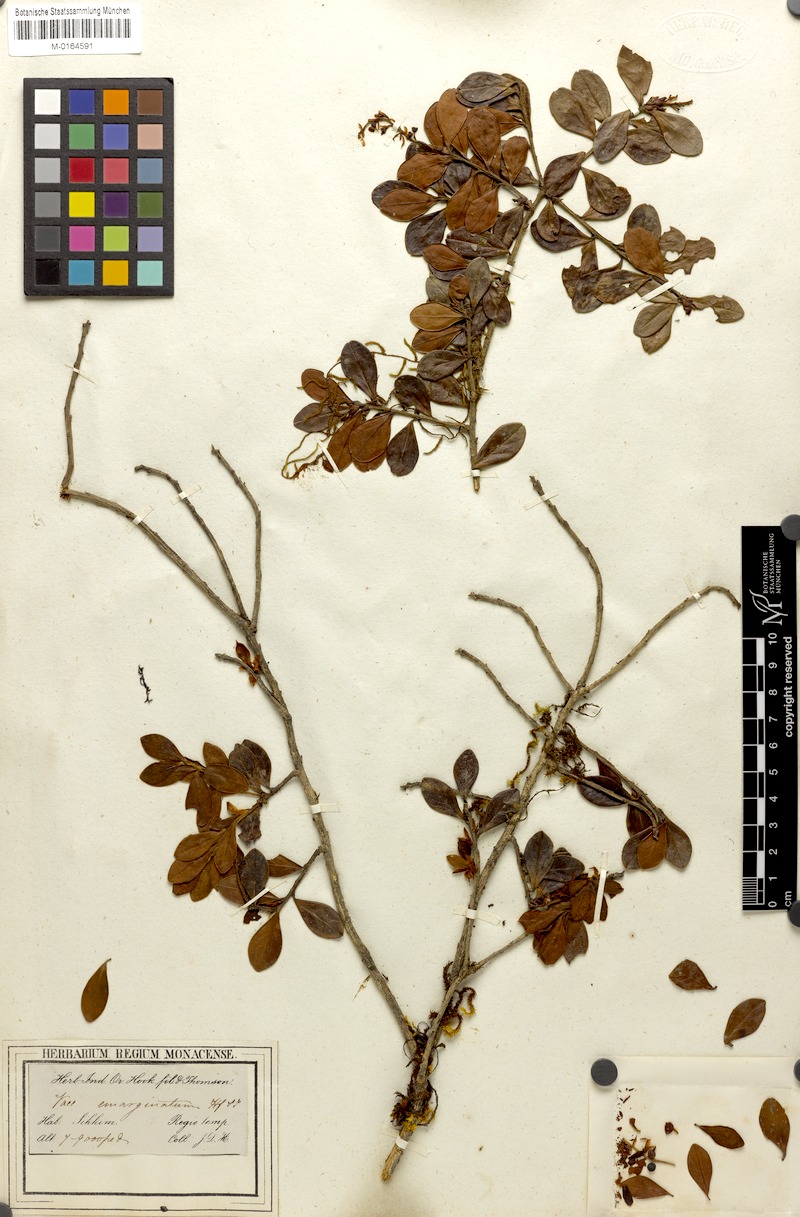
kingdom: Plantae
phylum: Tracheophyta
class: Magnoliopsida
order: Ericales
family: Ericaceae
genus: Vaccinium
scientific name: Vaccinium emarginatum
